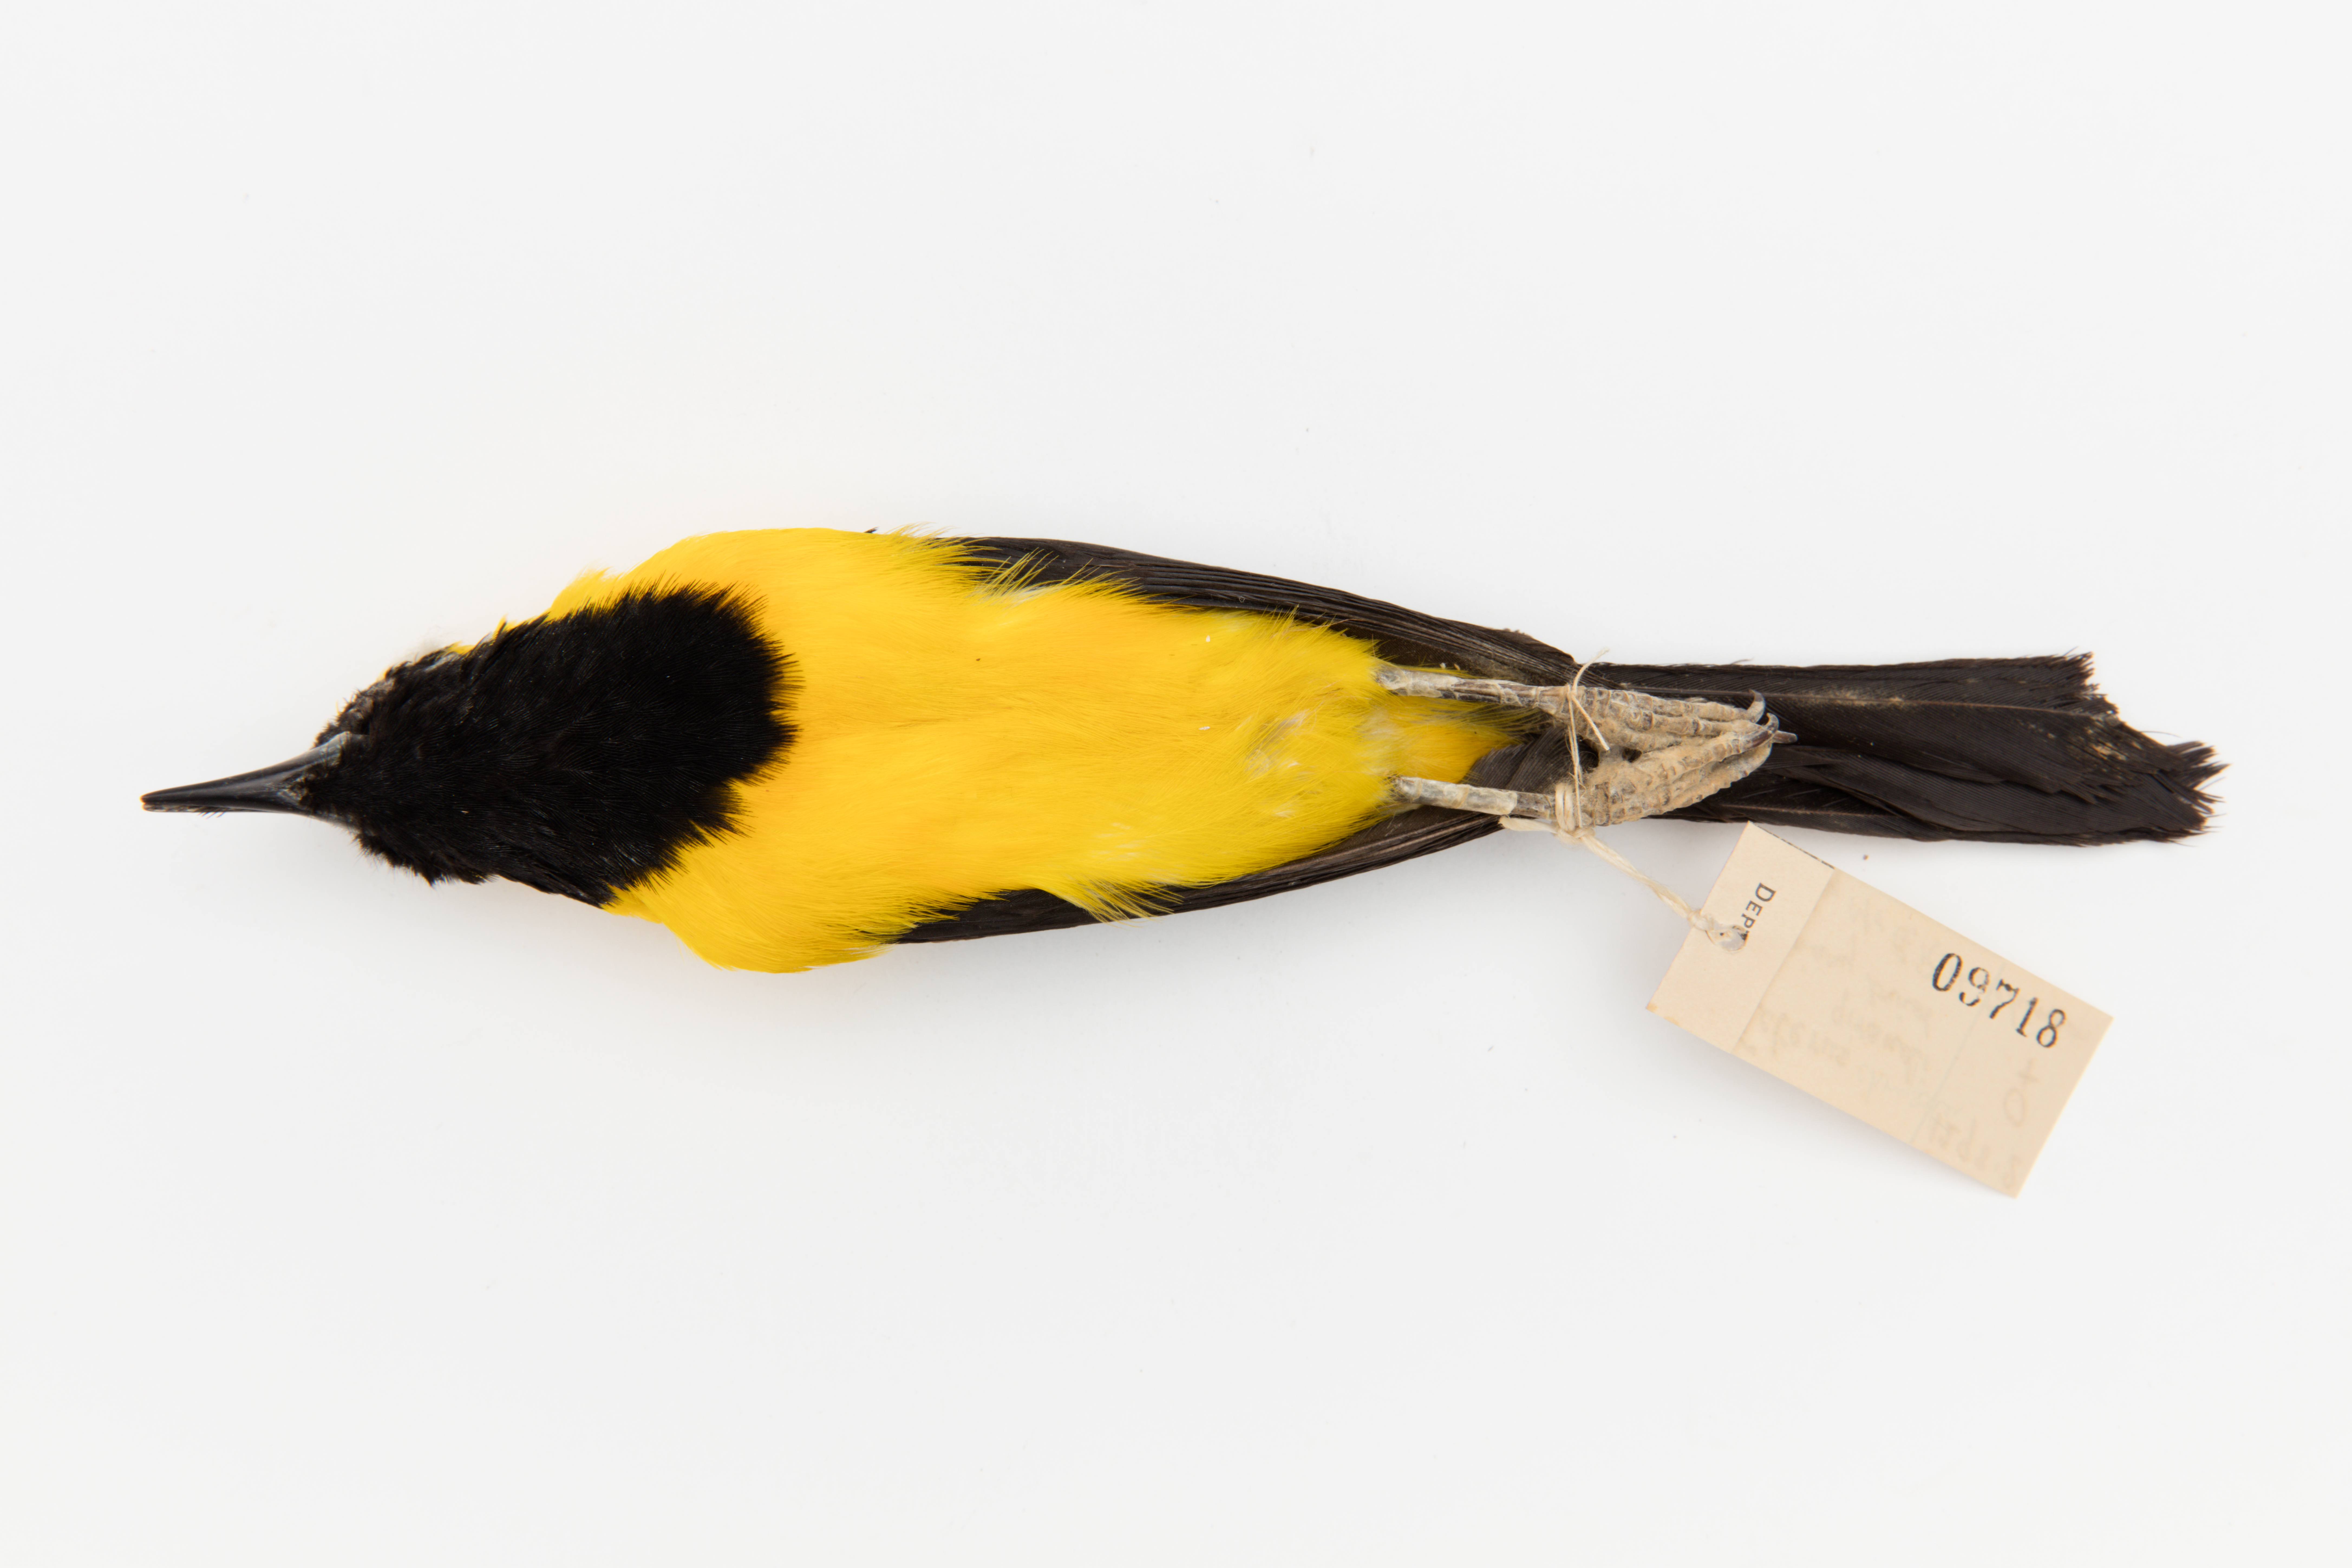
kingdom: Animalia
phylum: Chordata
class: Aves
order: Passeriformes
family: Icteridae
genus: Icterus
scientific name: Icterus chrysater
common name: Yellow-backed oriole
